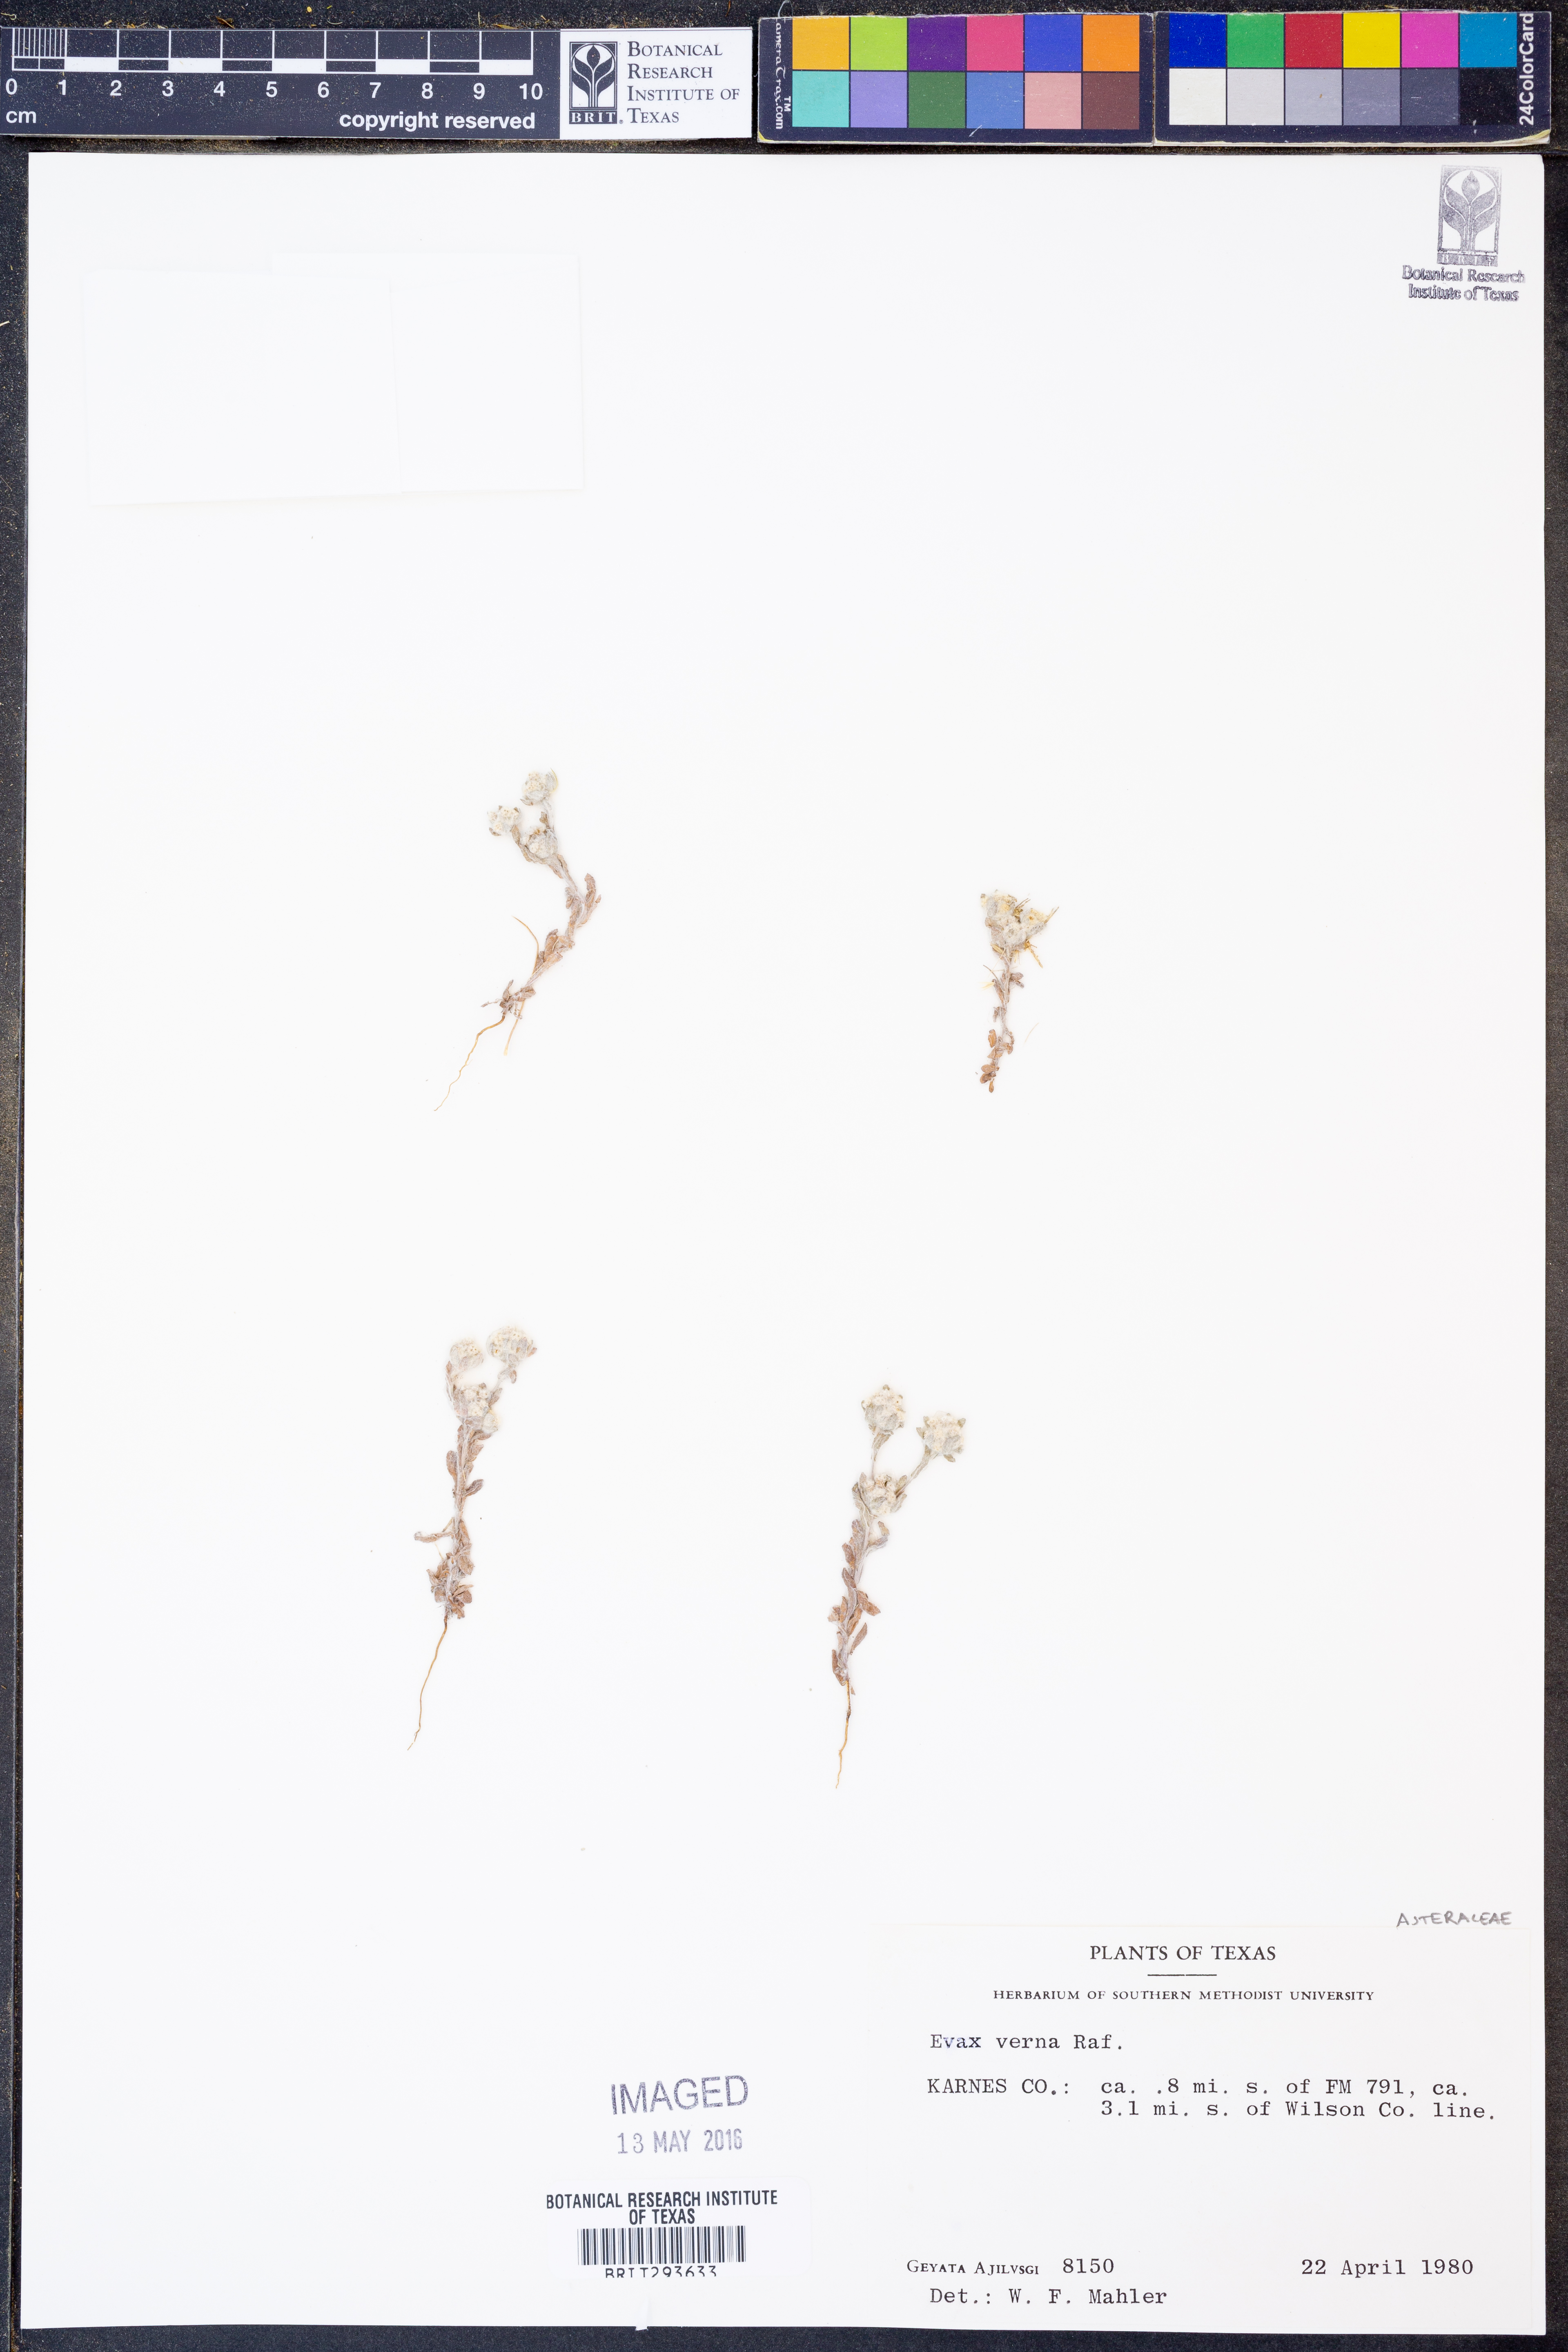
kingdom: Plantae
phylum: Tracheophyta
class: Magnoliopsida
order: Asterales
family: Asteraceae
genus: Diaperia
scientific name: Diaperia verna
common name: Many-stem rabbit-tobacco
